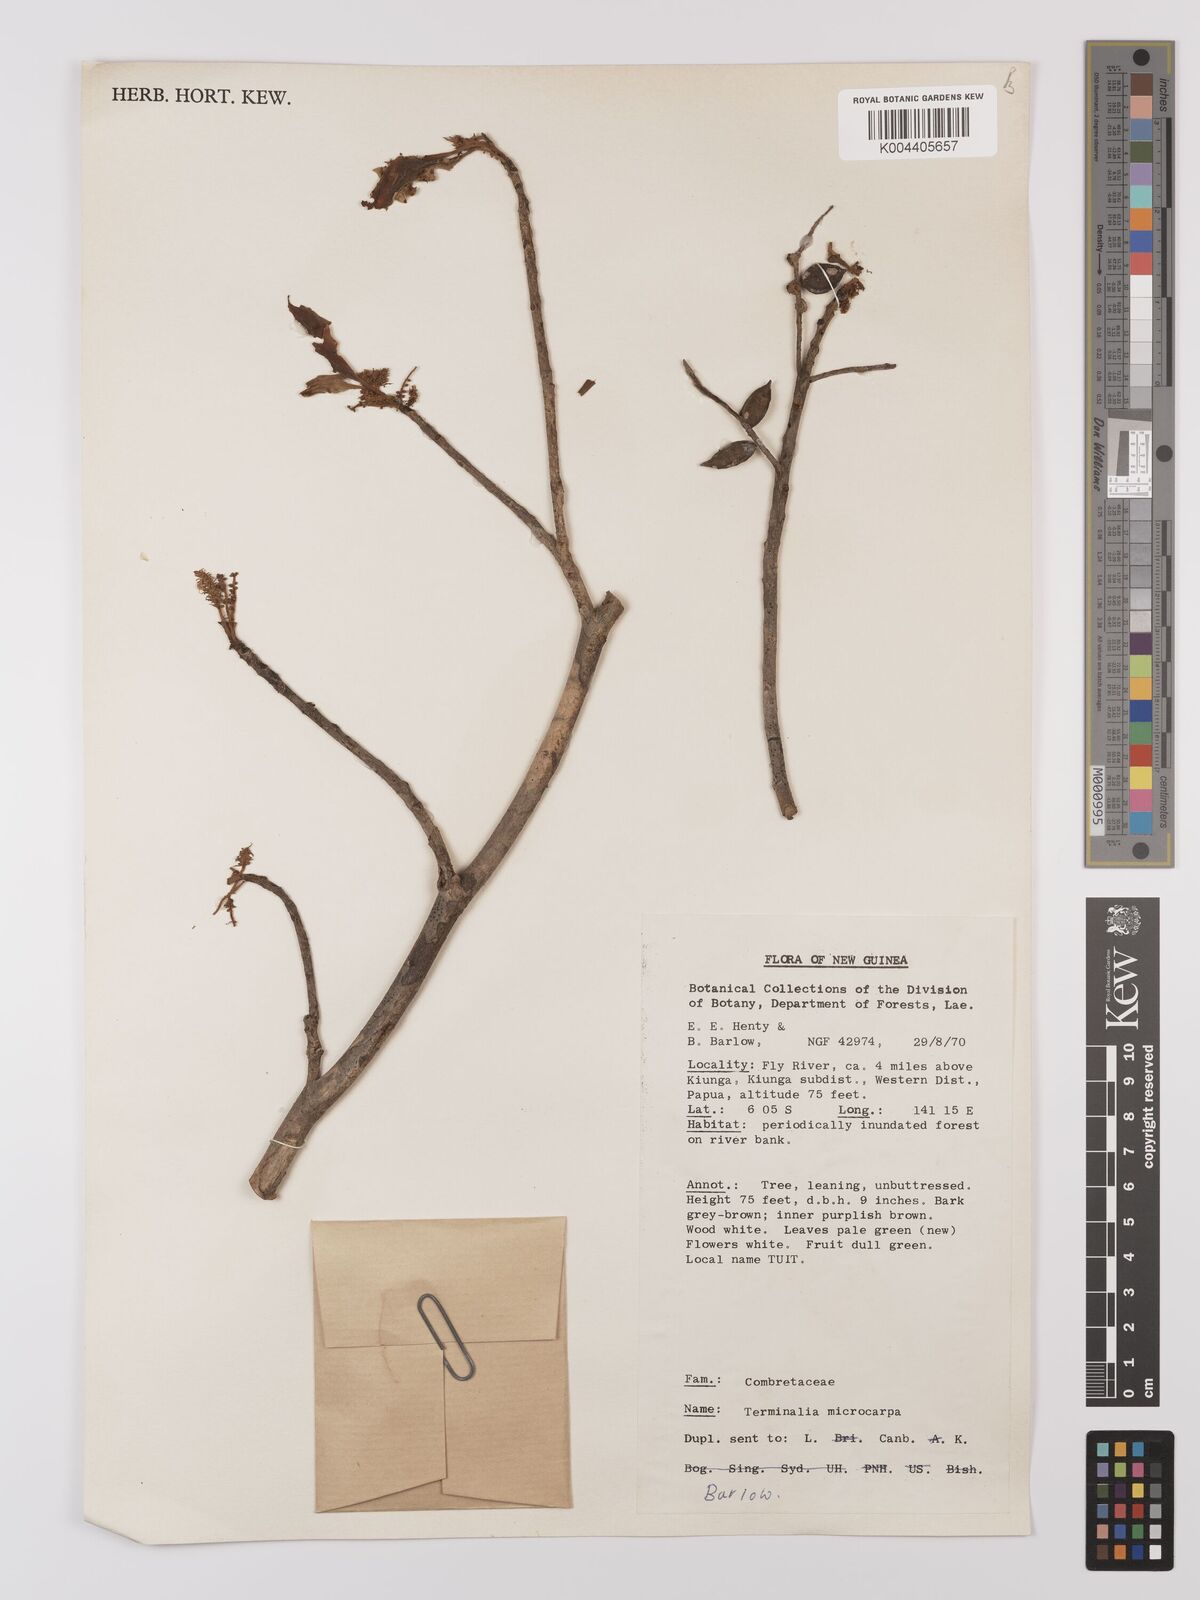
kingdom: Plantae
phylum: Tracheophyta
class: Magnoliopsida
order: Myrtales
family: Combretaceae
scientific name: Combretaceae
